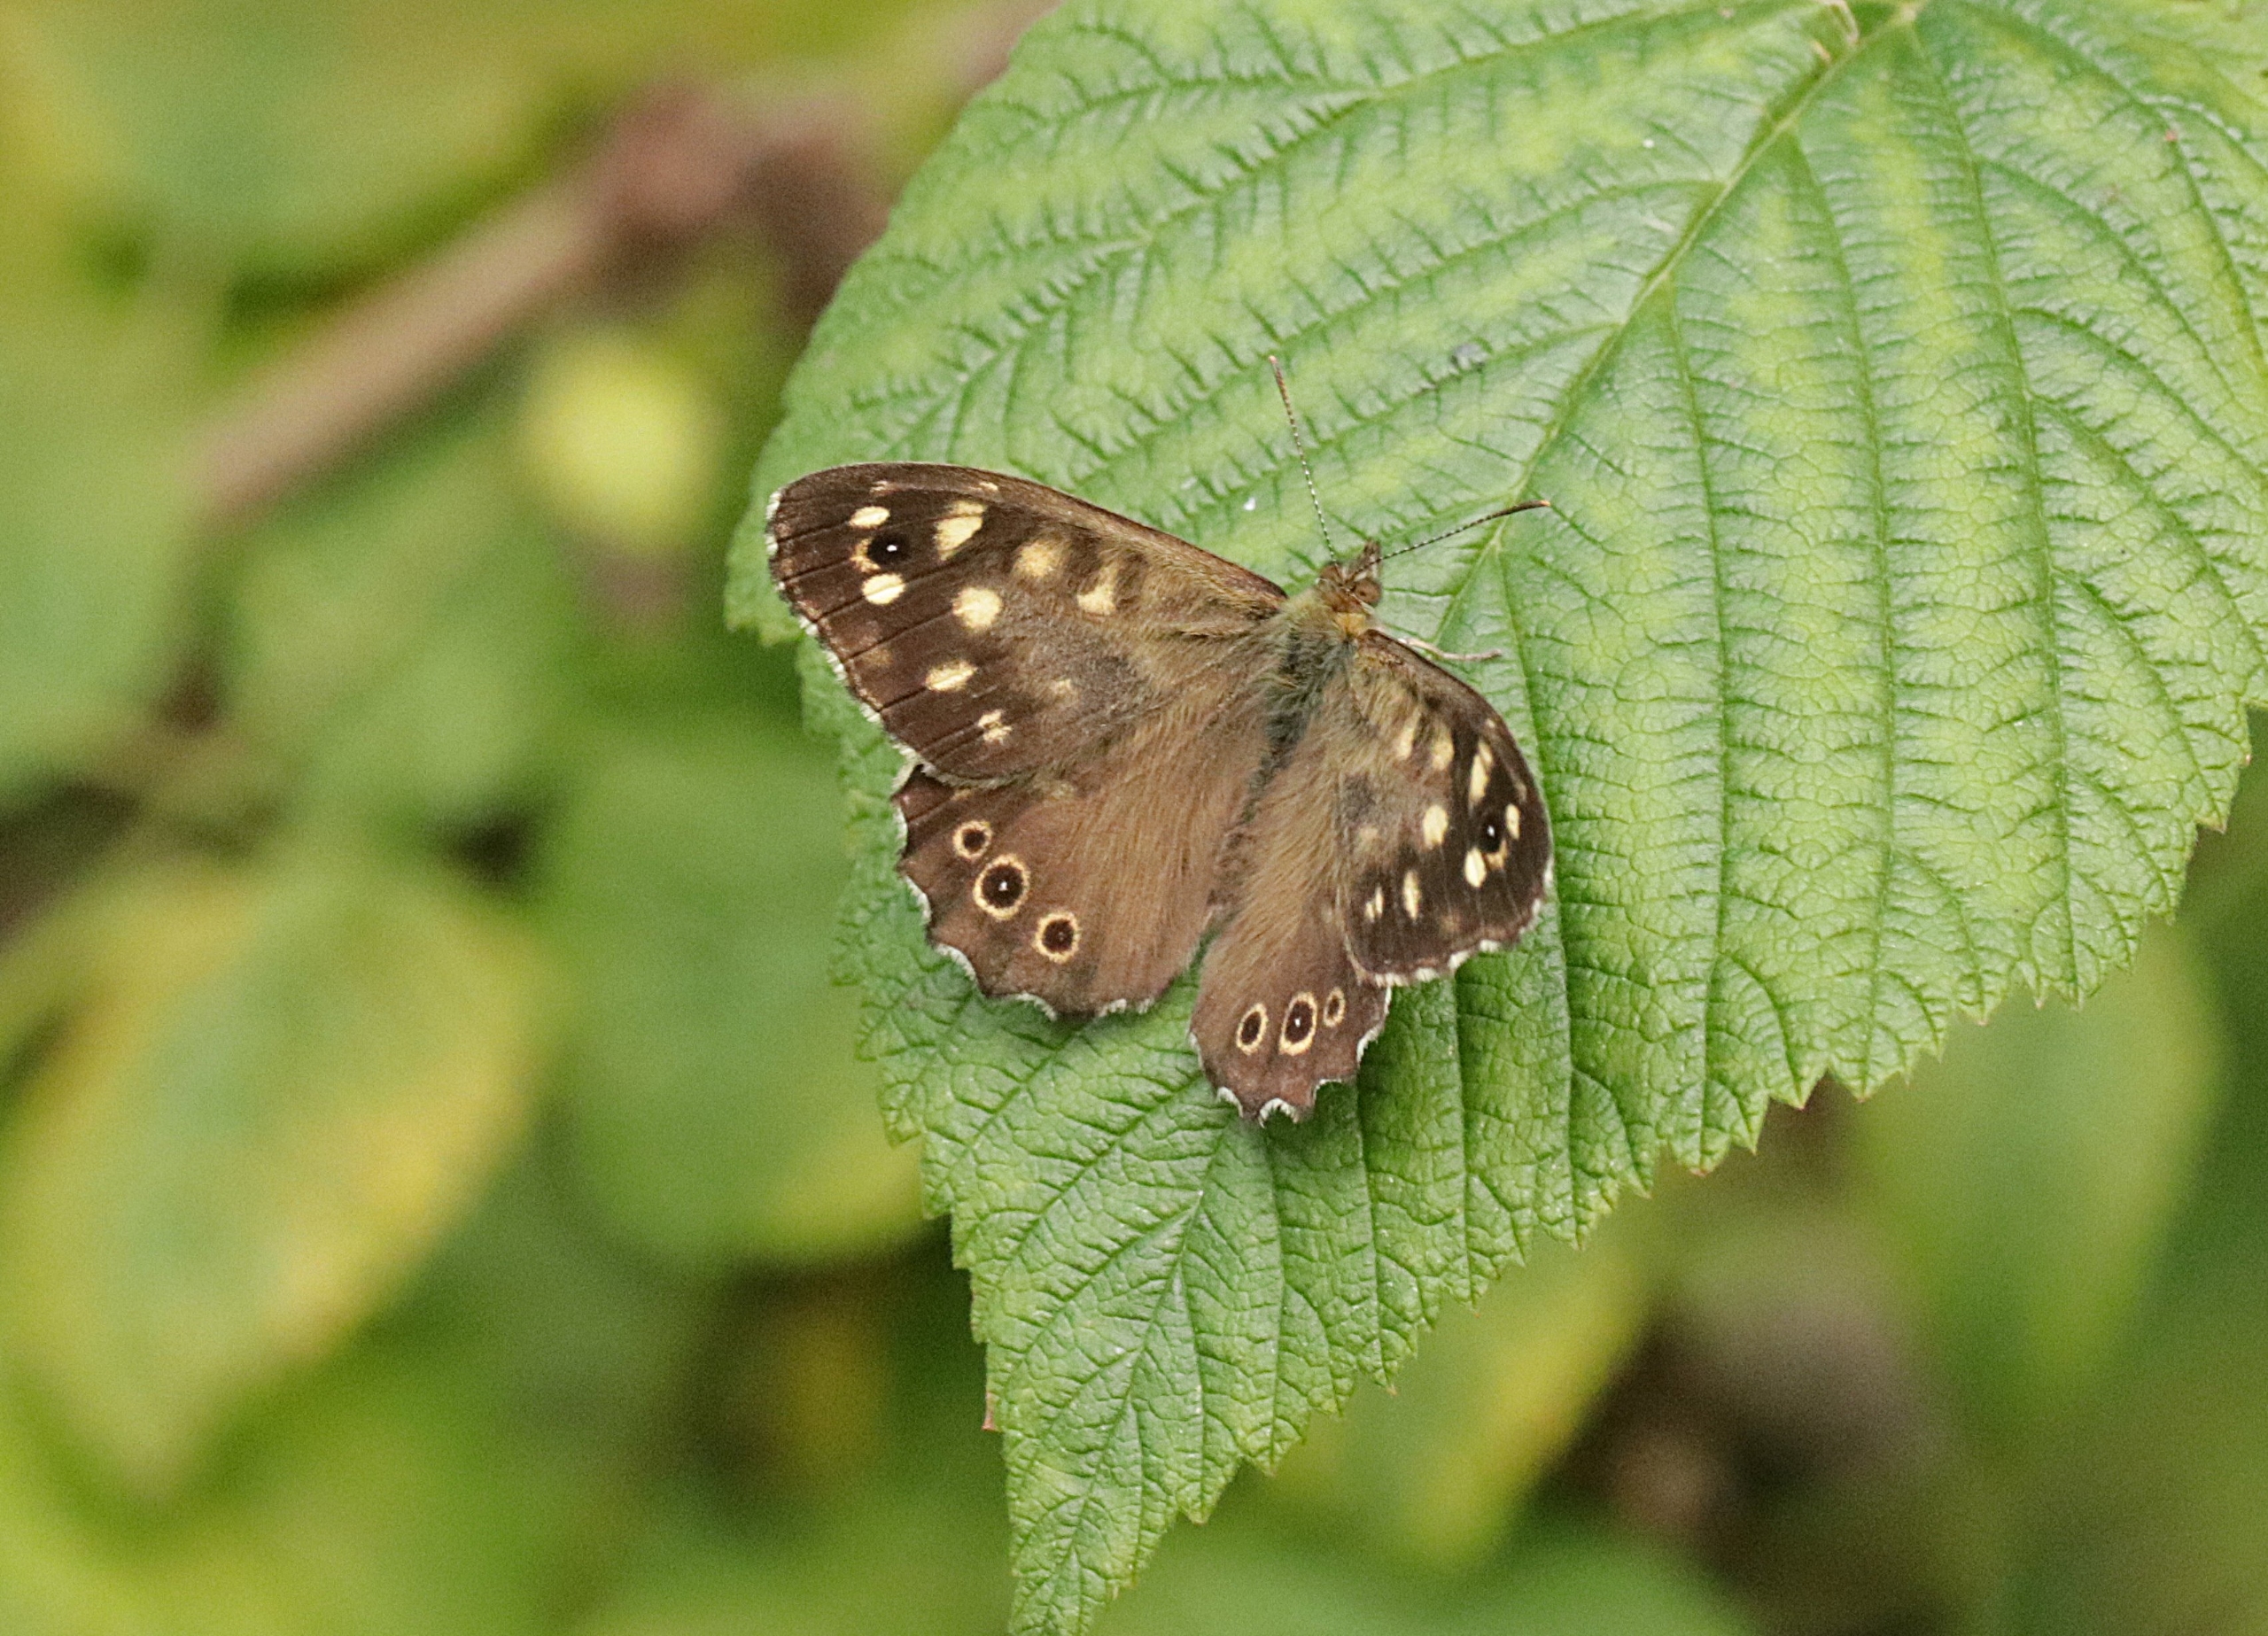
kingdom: Animalia
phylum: Arthropoda
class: Insecta
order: Lepidoptera
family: Nymphalidae
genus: Pararge
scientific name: Pararge aegeria
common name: Skovrandøje
